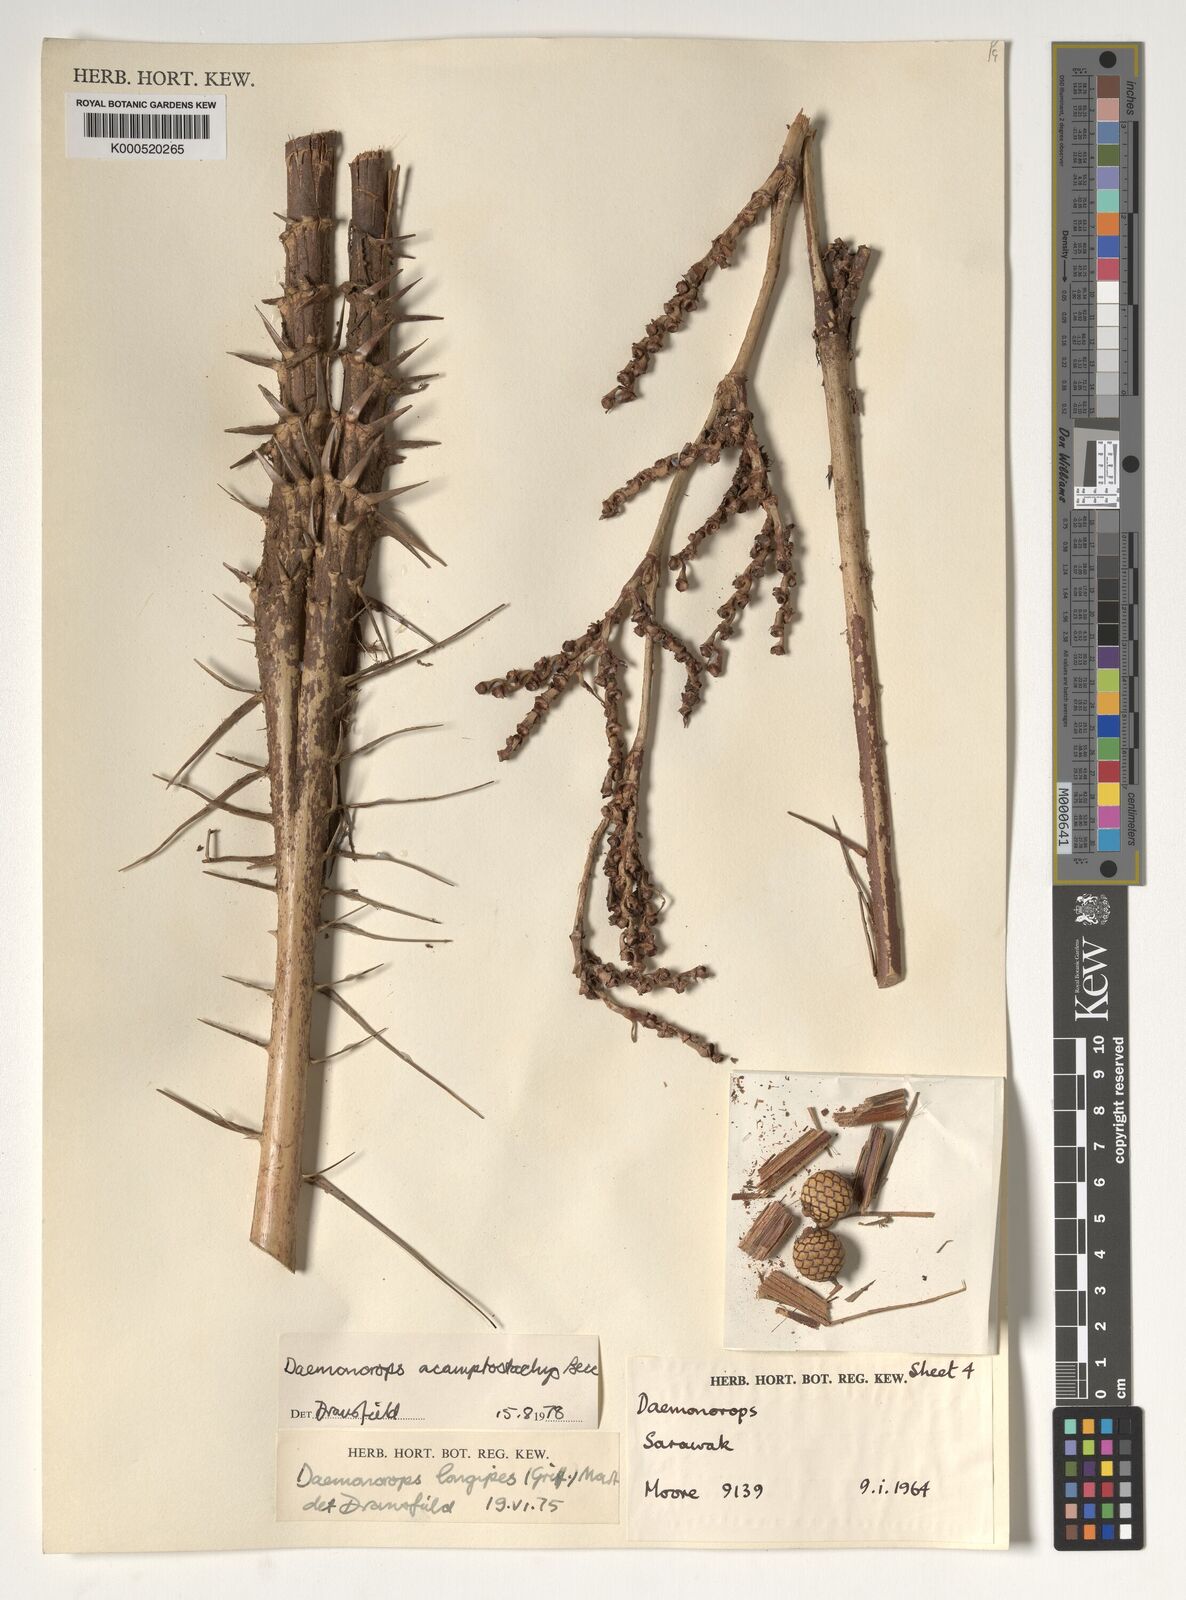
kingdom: Plantae
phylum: Tracheophyta
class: Liliopsida
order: Arecales
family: Arecaceae
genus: Calamus
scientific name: Calamus acamptostachys
